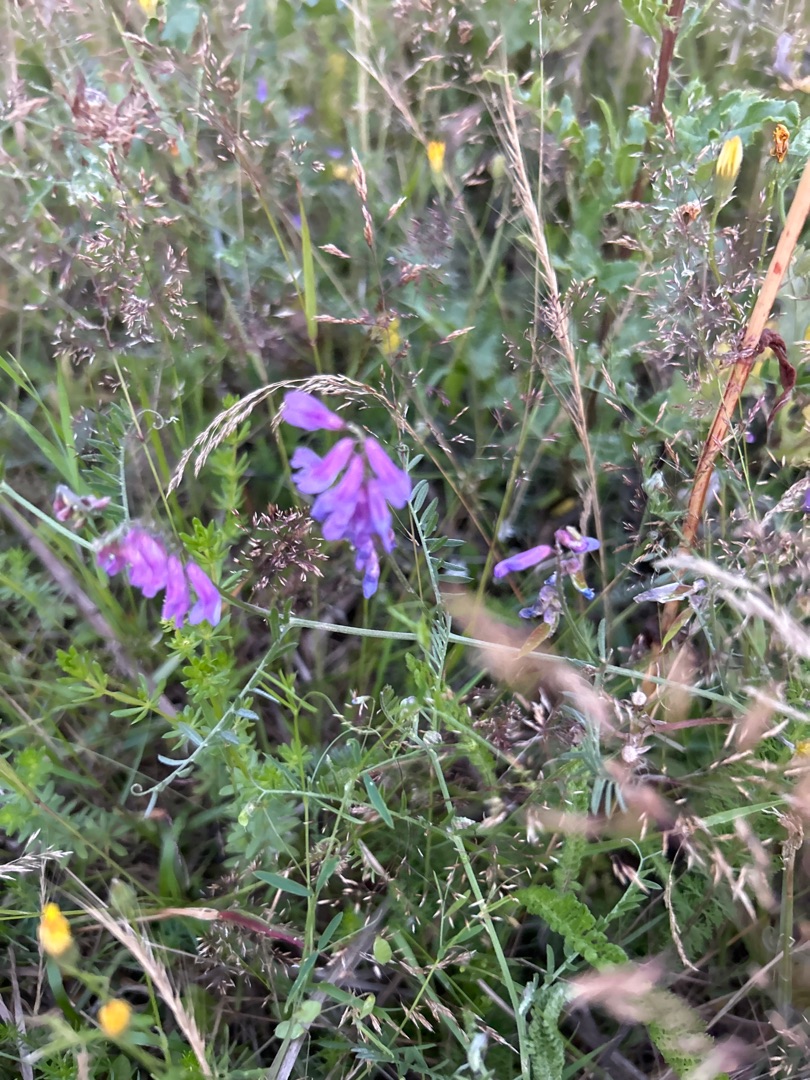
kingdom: Plantae
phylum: Tracheophyta
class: Magnoliopsida
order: Fabales
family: Fabaceae
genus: Vicia
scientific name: Vicia cracca
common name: Muse-vikke
